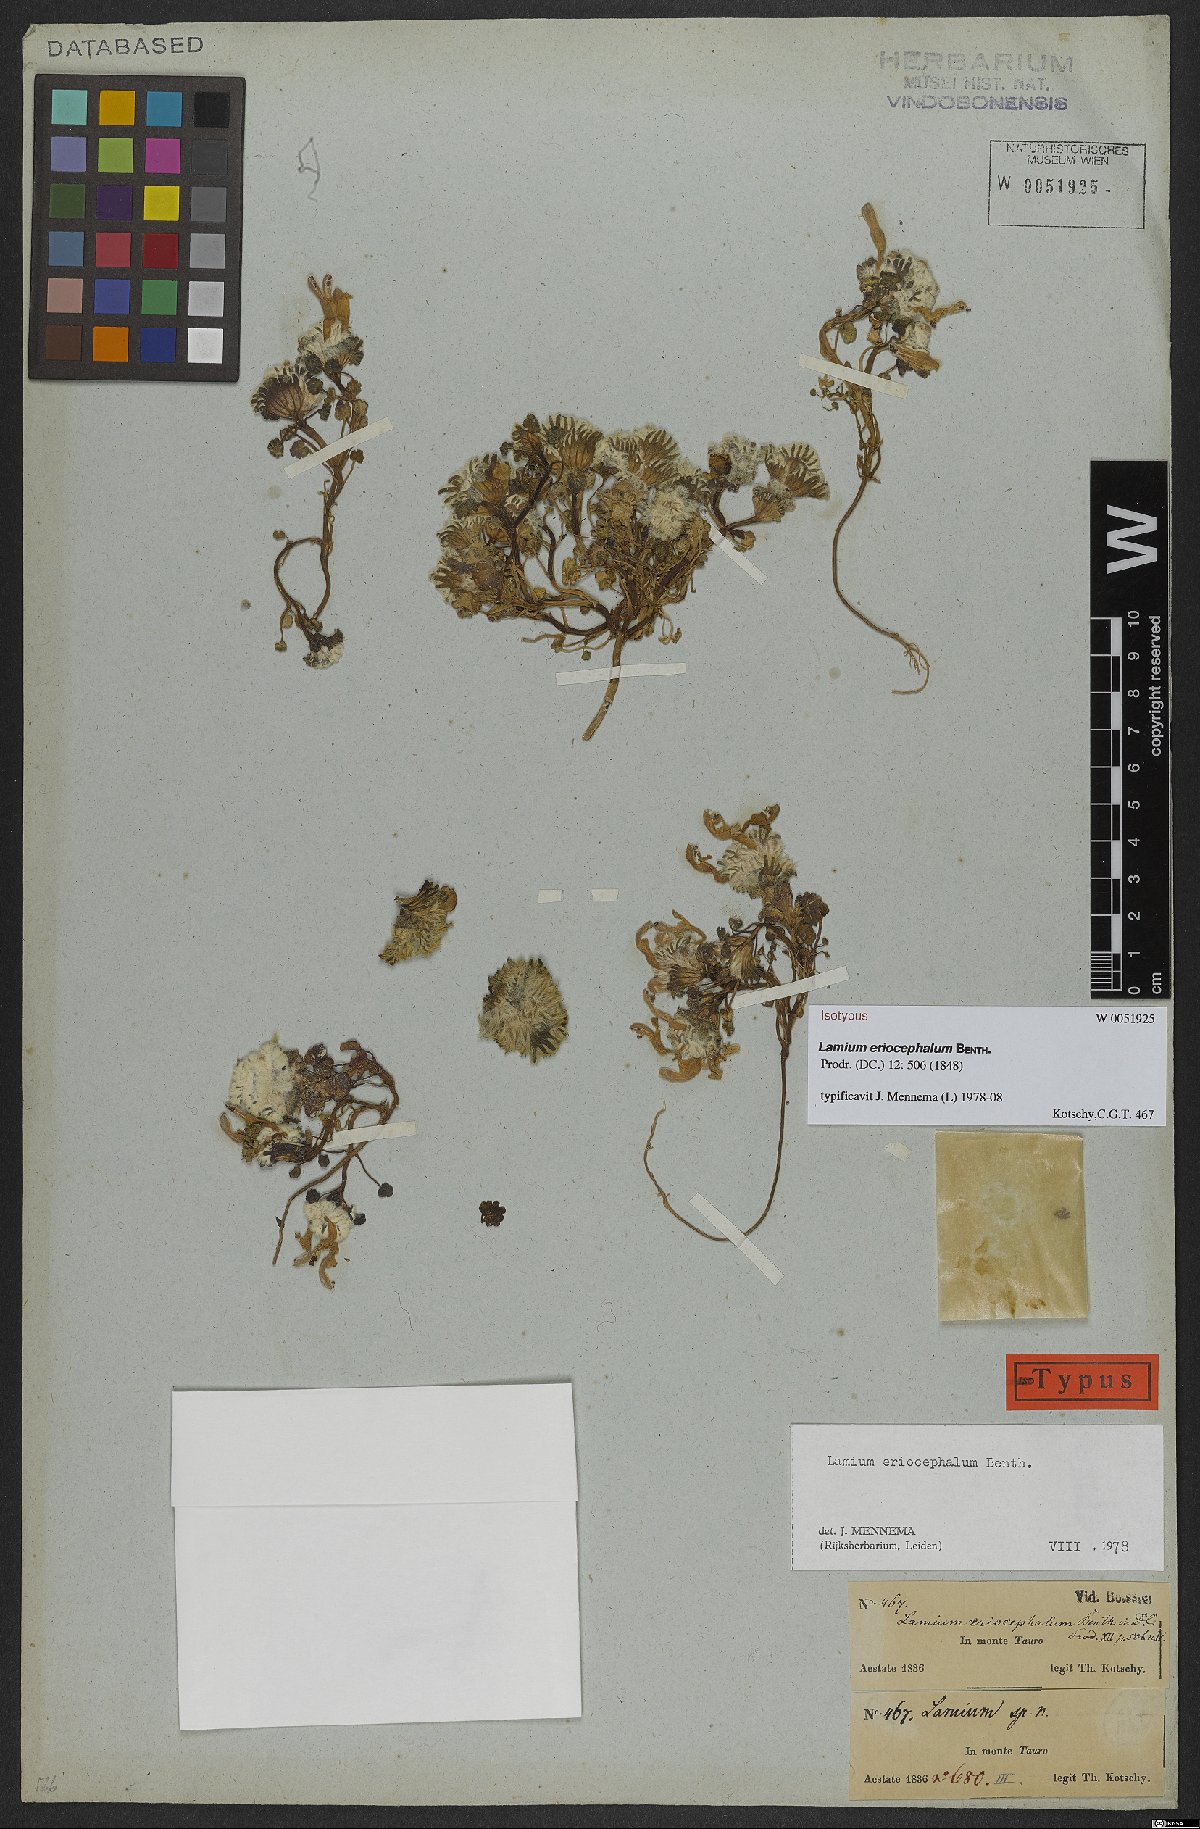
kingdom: Plantae
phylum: Tracheophyta
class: Magnoliopsida
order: Lamiales
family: Lamiaceae
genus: Lamium
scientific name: Lamium eriocephalum
